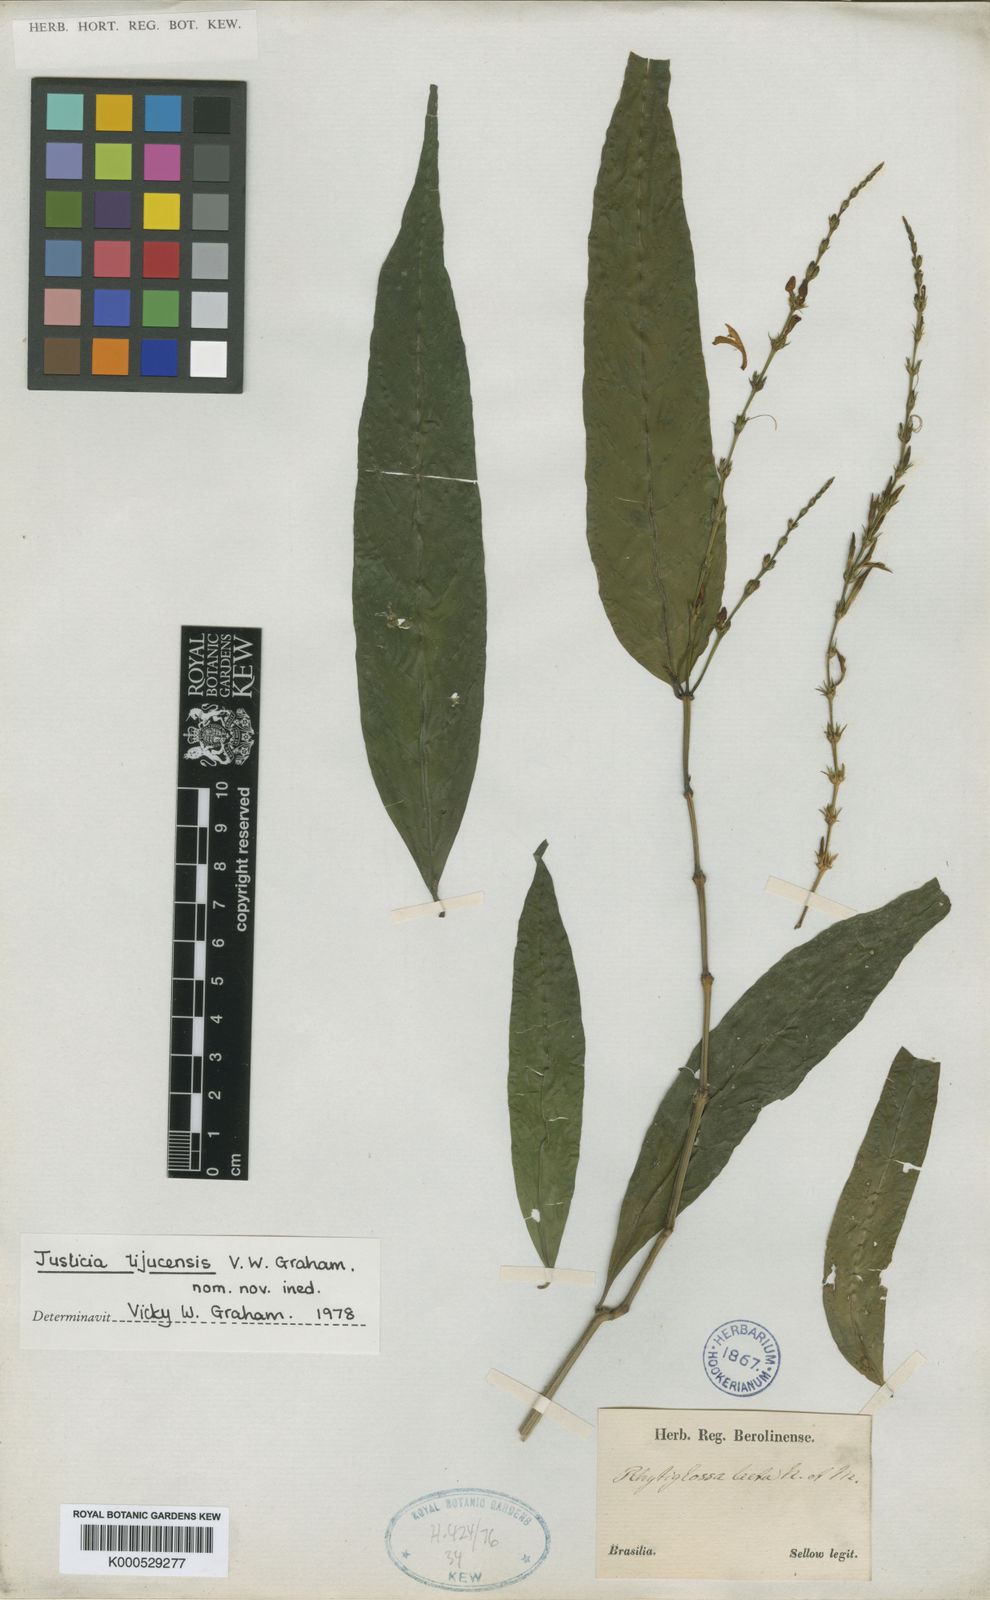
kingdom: Plantae
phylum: Tracheophyta
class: Magnoliopsida
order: Lamiales
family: Acanthaceae
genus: Dianthera
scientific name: Dianthera laeta
